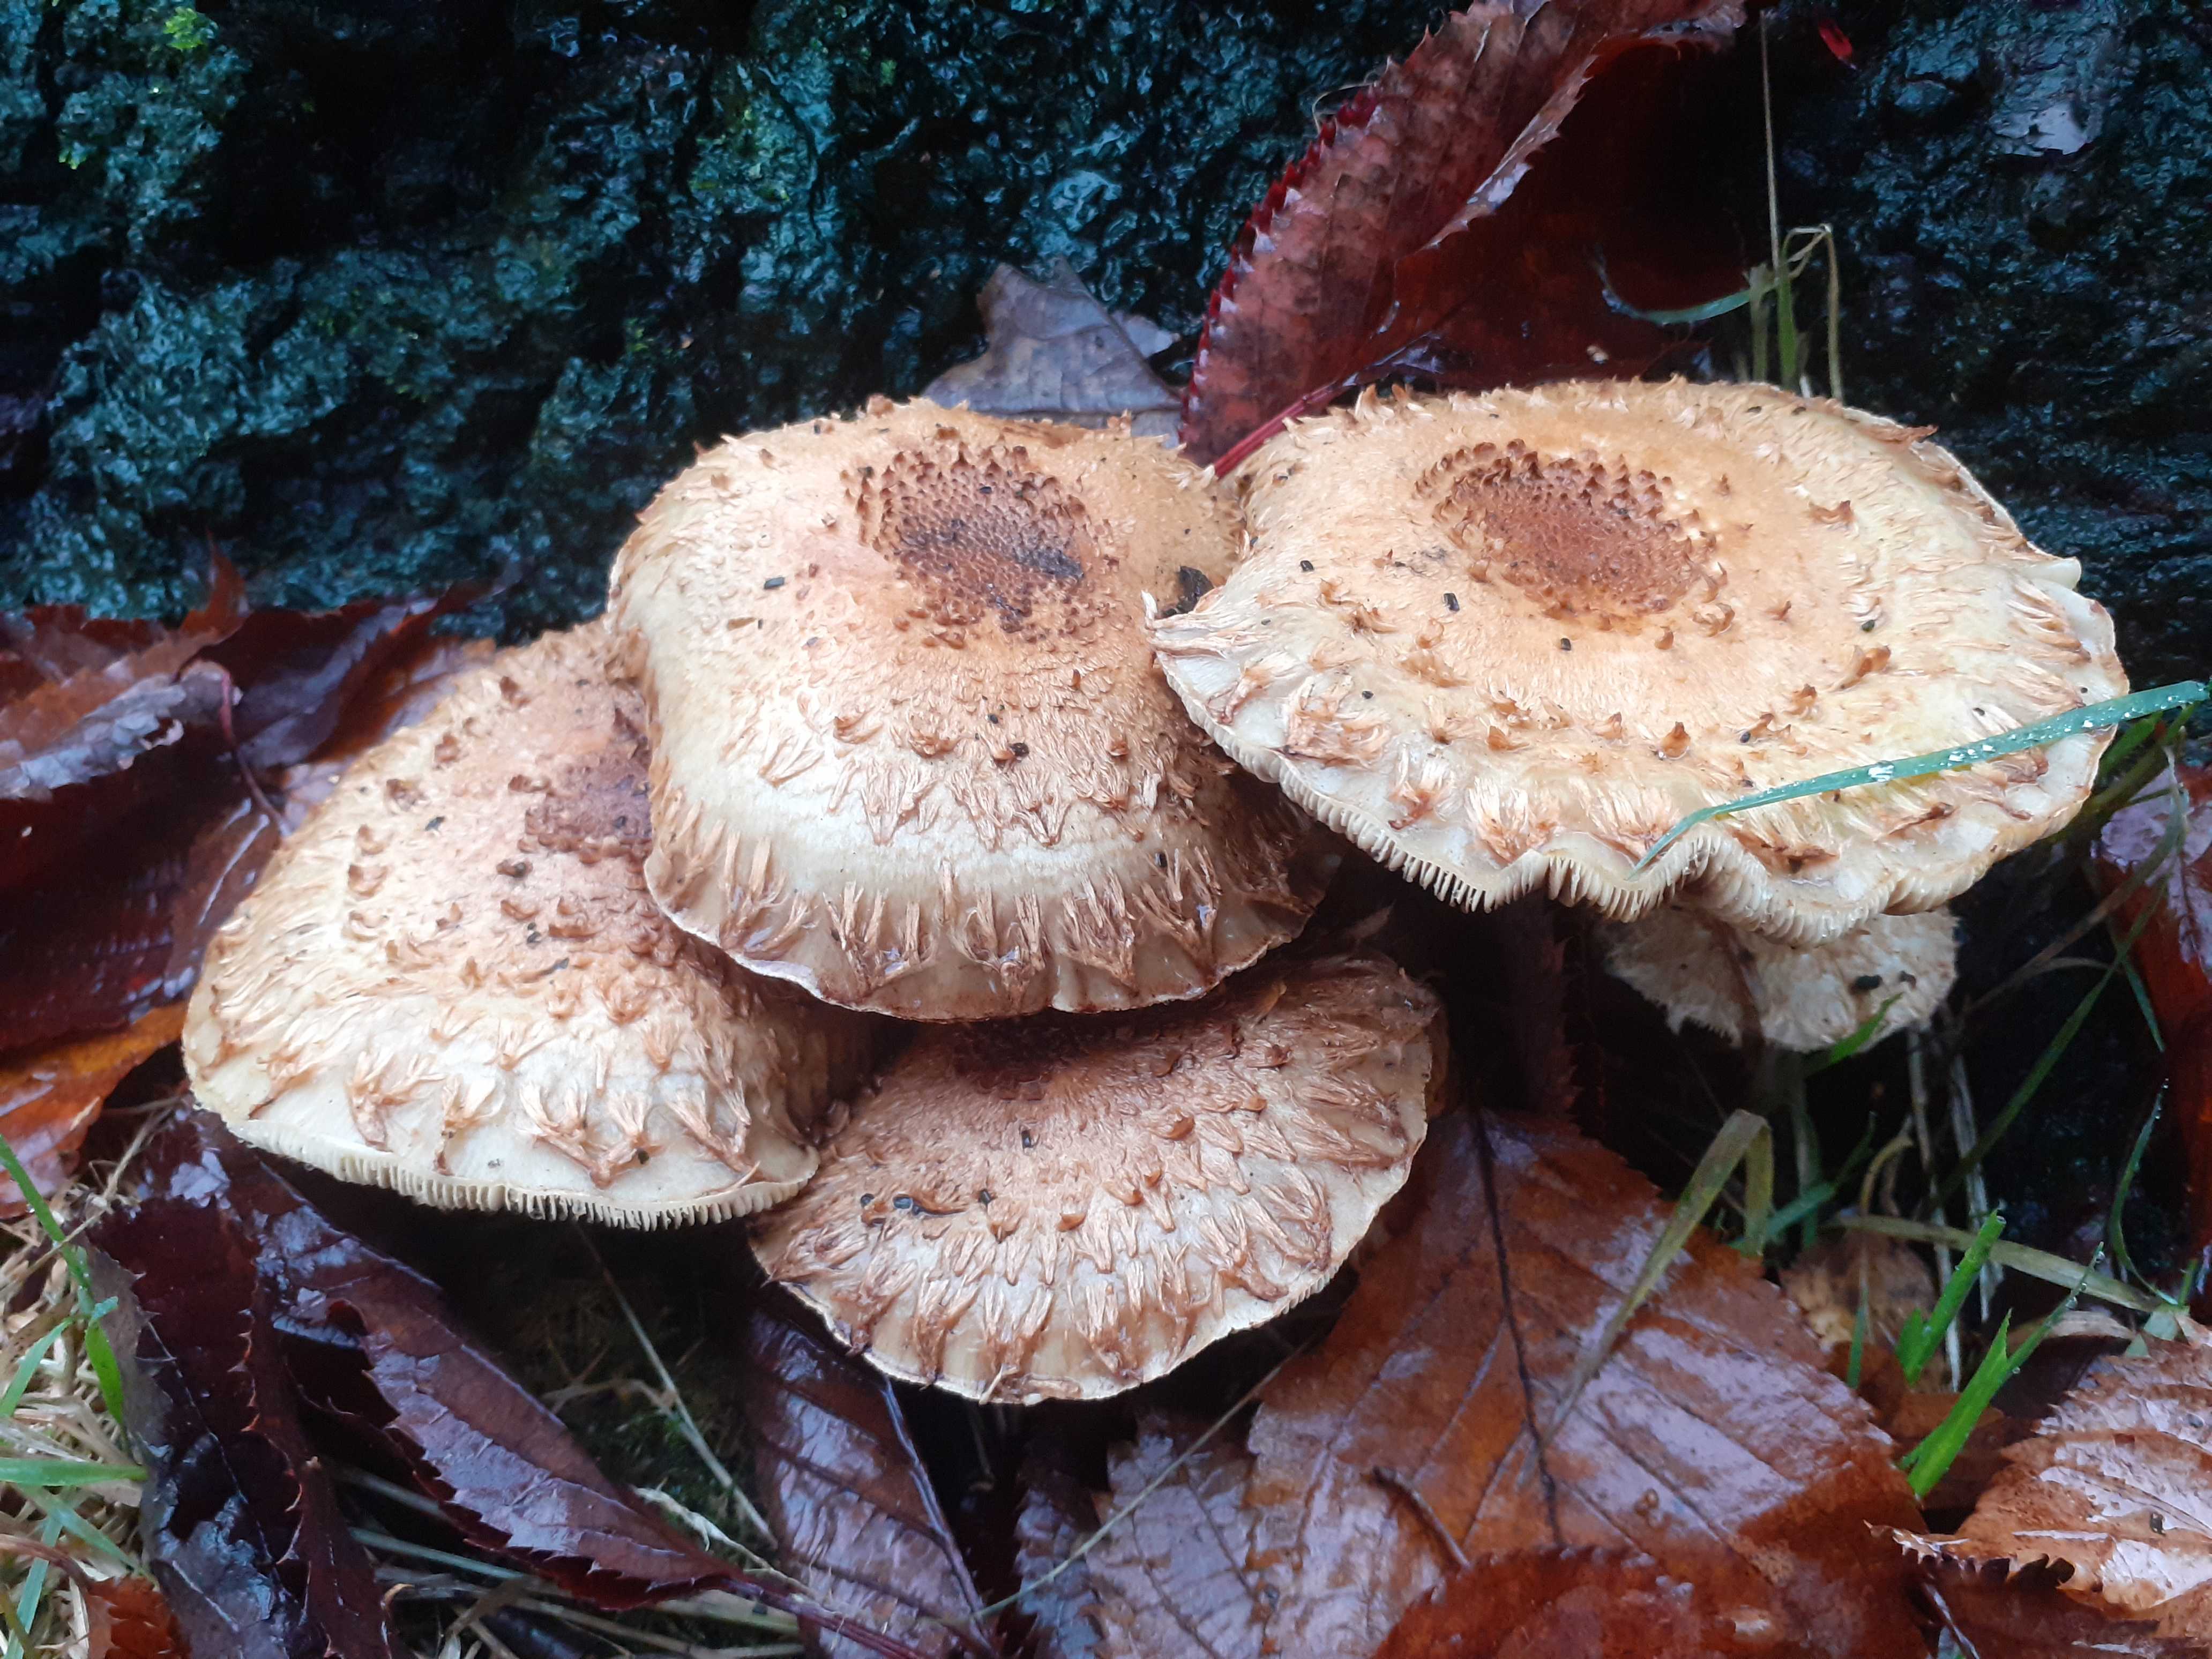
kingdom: Fungi
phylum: Basidiomycota
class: Agaricomycetes
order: Agaricales
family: Strophariaceae
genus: Pholiota
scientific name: Pholiota squarrosa
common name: krumskællet skælhat
